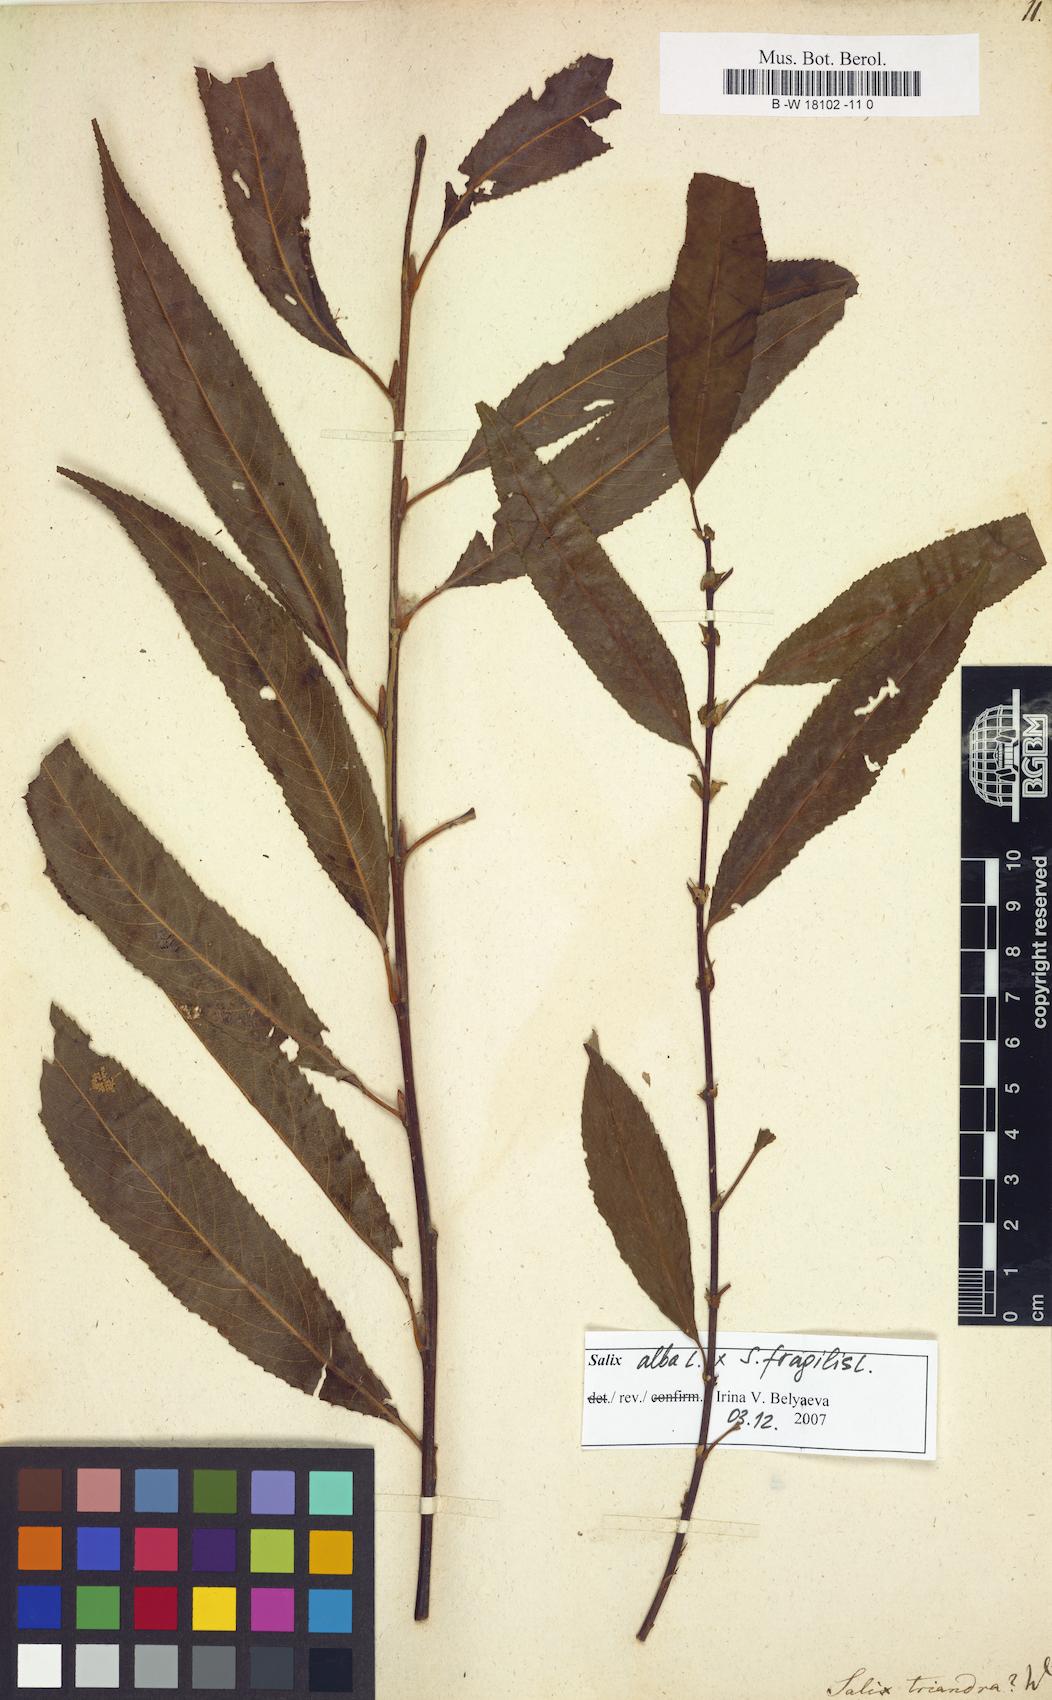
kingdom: Plantae
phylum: Tracheophyta
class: Magnoliopsida
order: Malpighiales
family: Salicaceae
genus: Salix
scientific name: Salix triandra
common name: Almond willow
